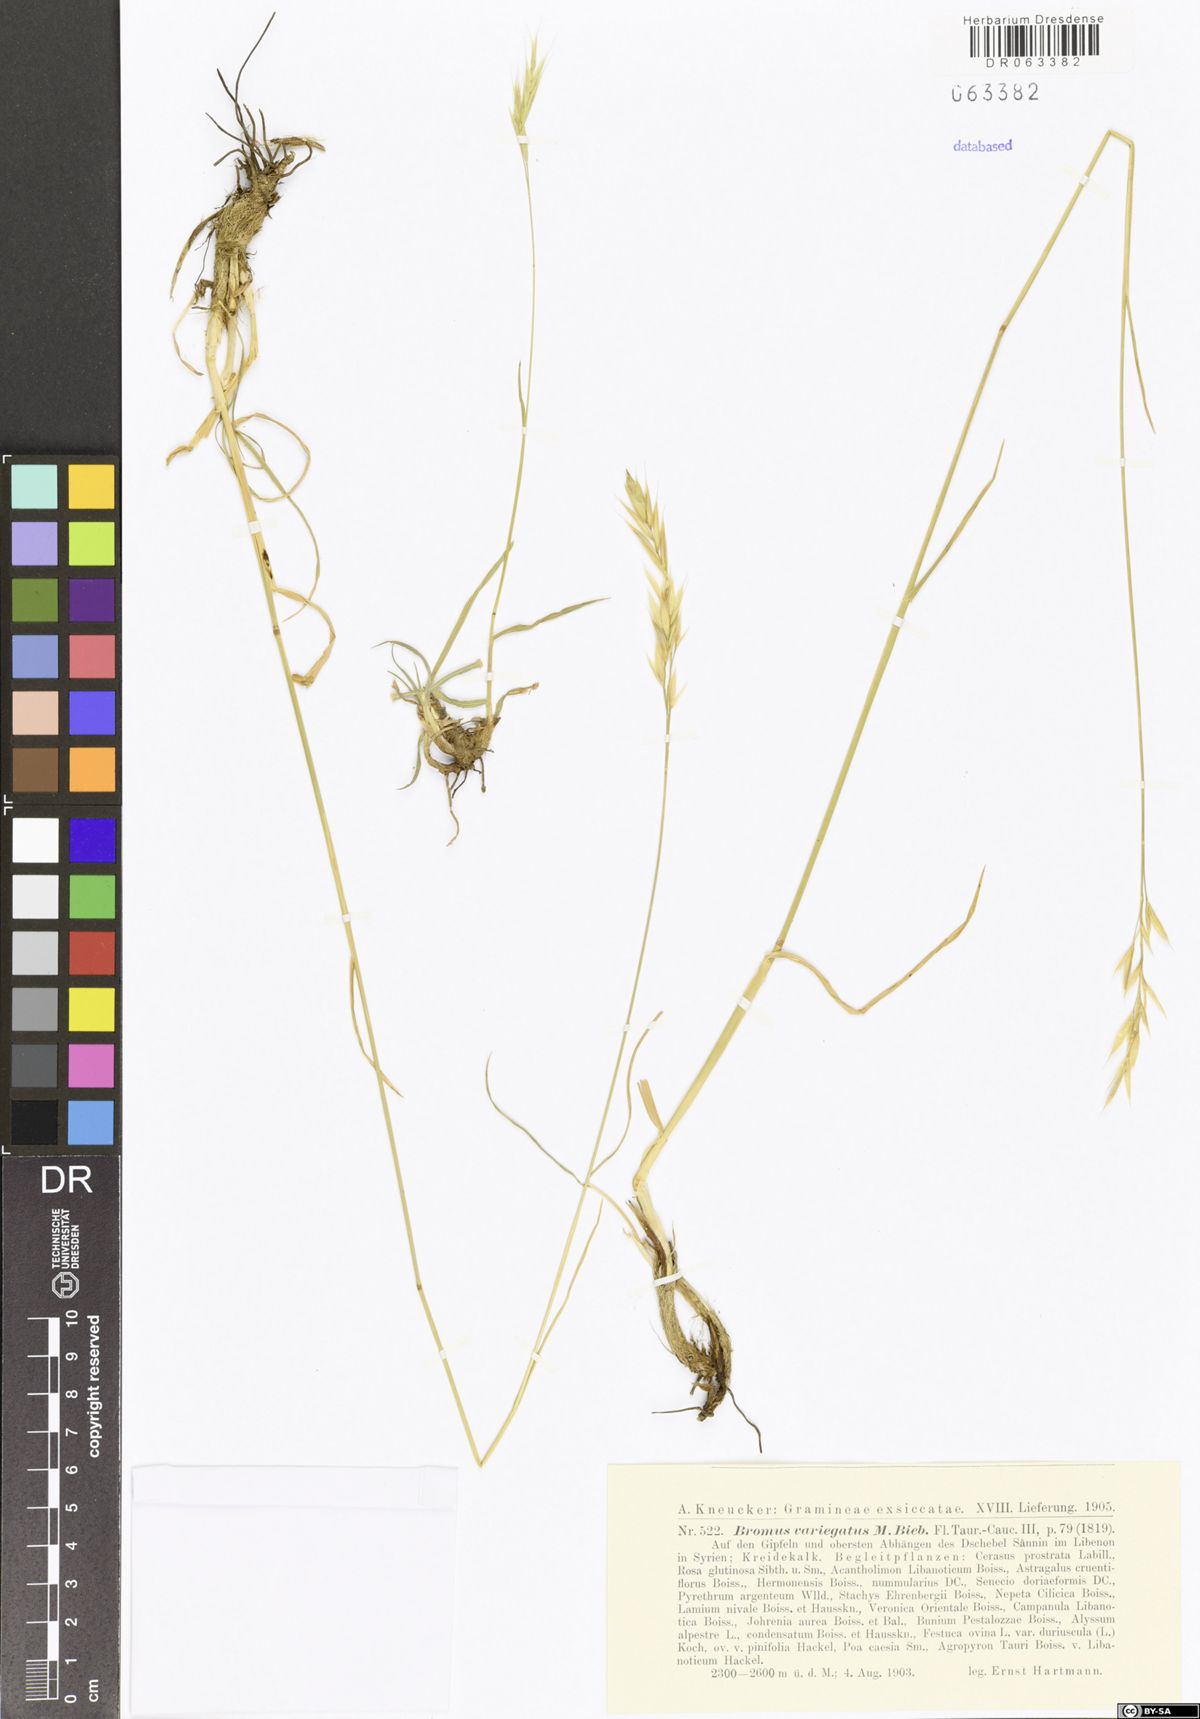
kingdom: Plantae
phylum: Tracheophyta
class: Liliopsida
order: Poales
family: Poaceae
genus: Bromus
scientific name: Bromus variegatus
